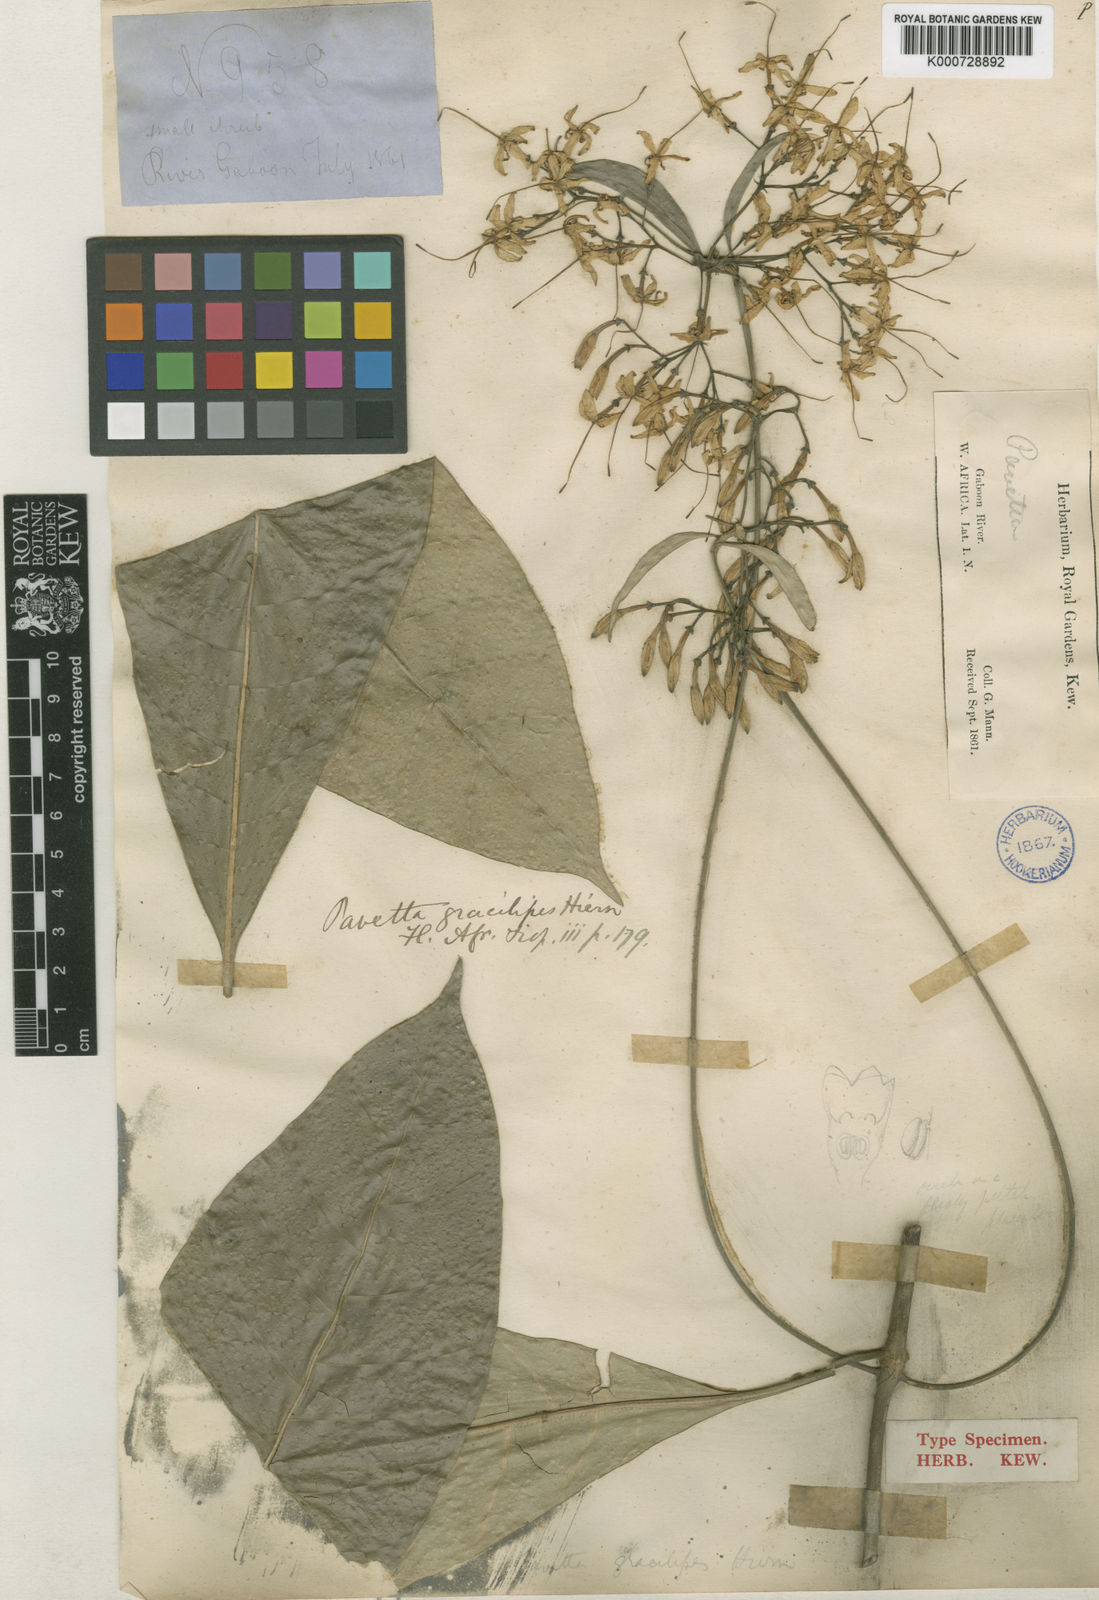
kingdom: Plantae
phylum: Tracheophyta
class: Magnoliopsida
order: Gentianales
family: Rubiaceae
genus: Pavetta
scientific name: Pavetta gracilipes
